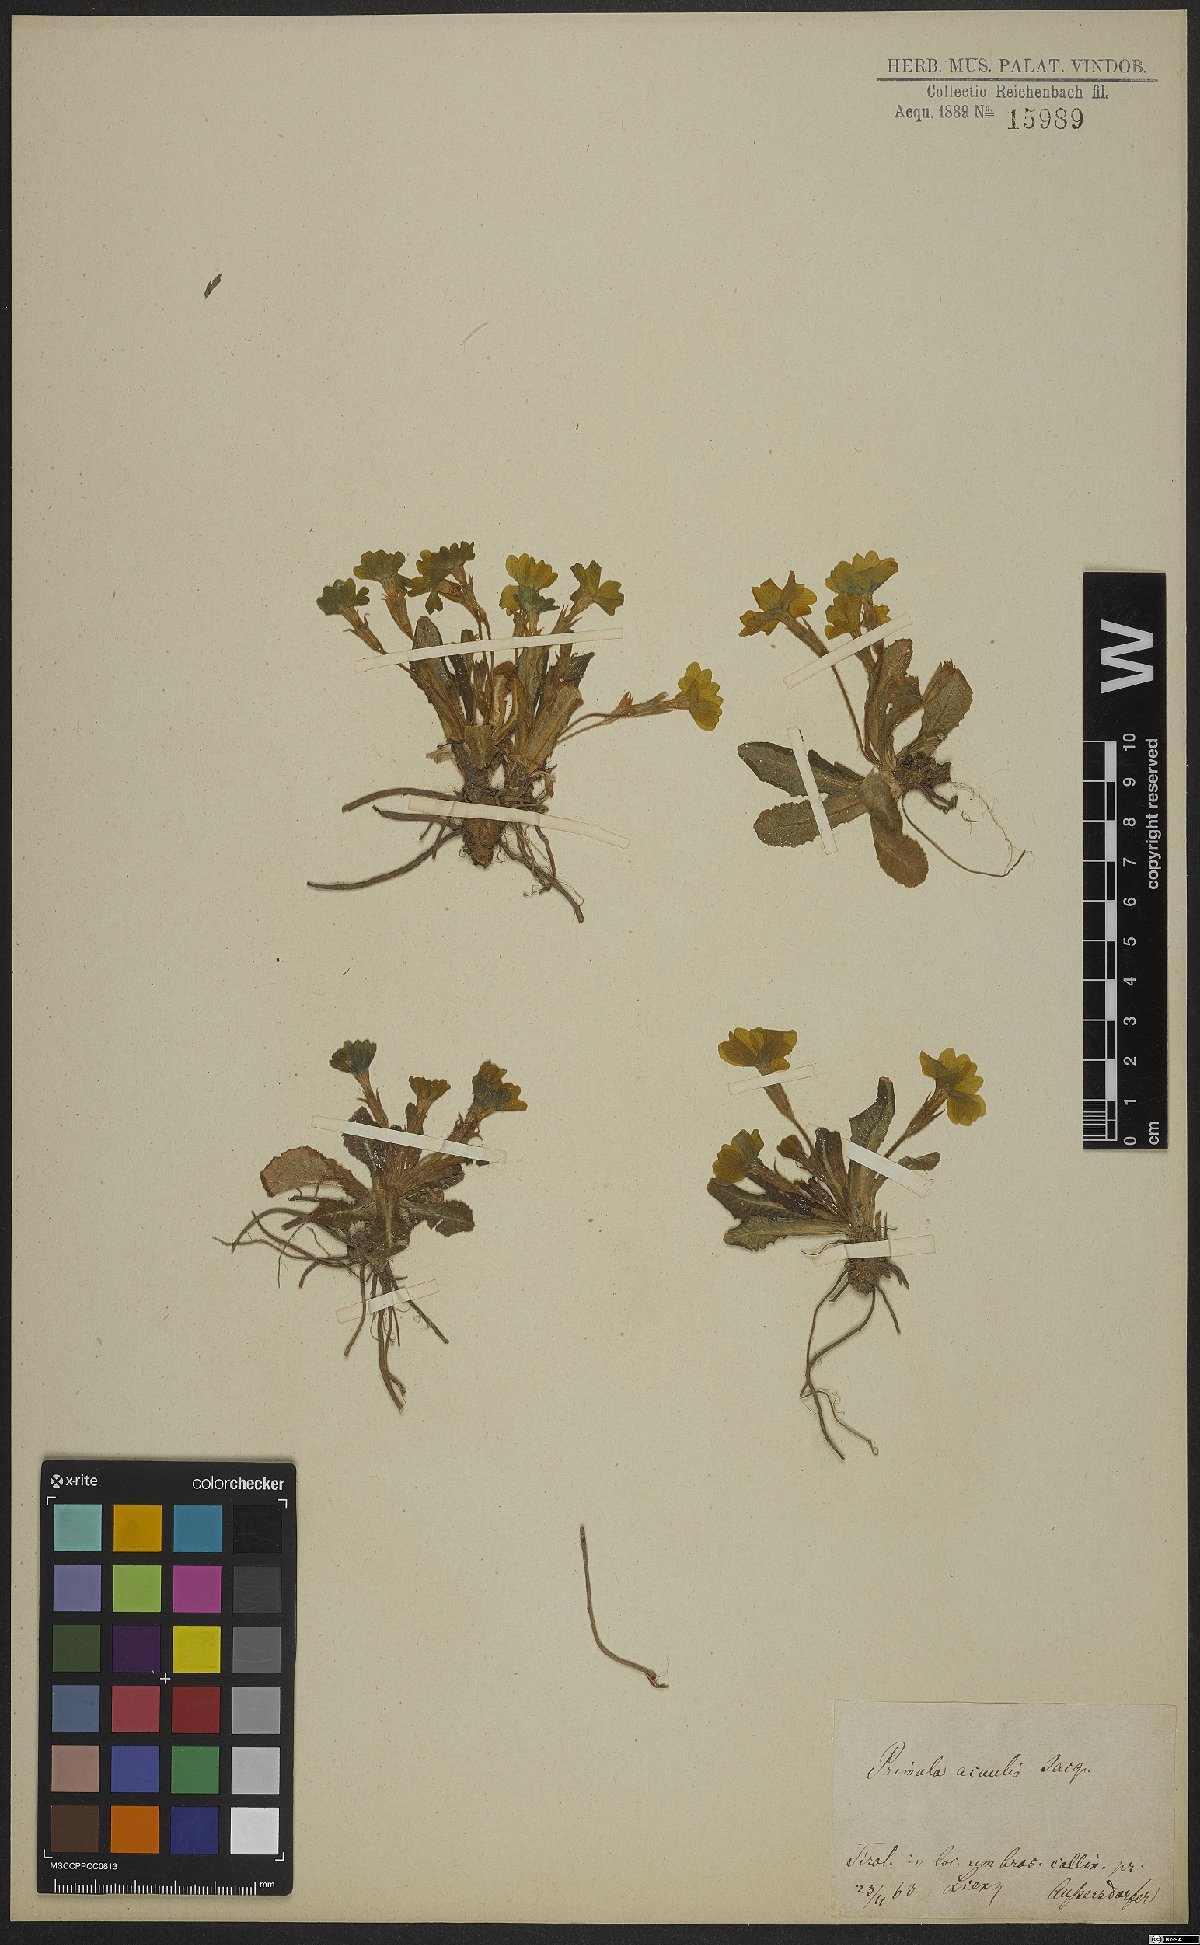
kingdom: Plantae
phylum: Tracheophyta
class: Magnoliopsida
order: Ericales
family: Primulaceae
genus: Primula
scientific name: Primula vulgaris
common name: Primrose
